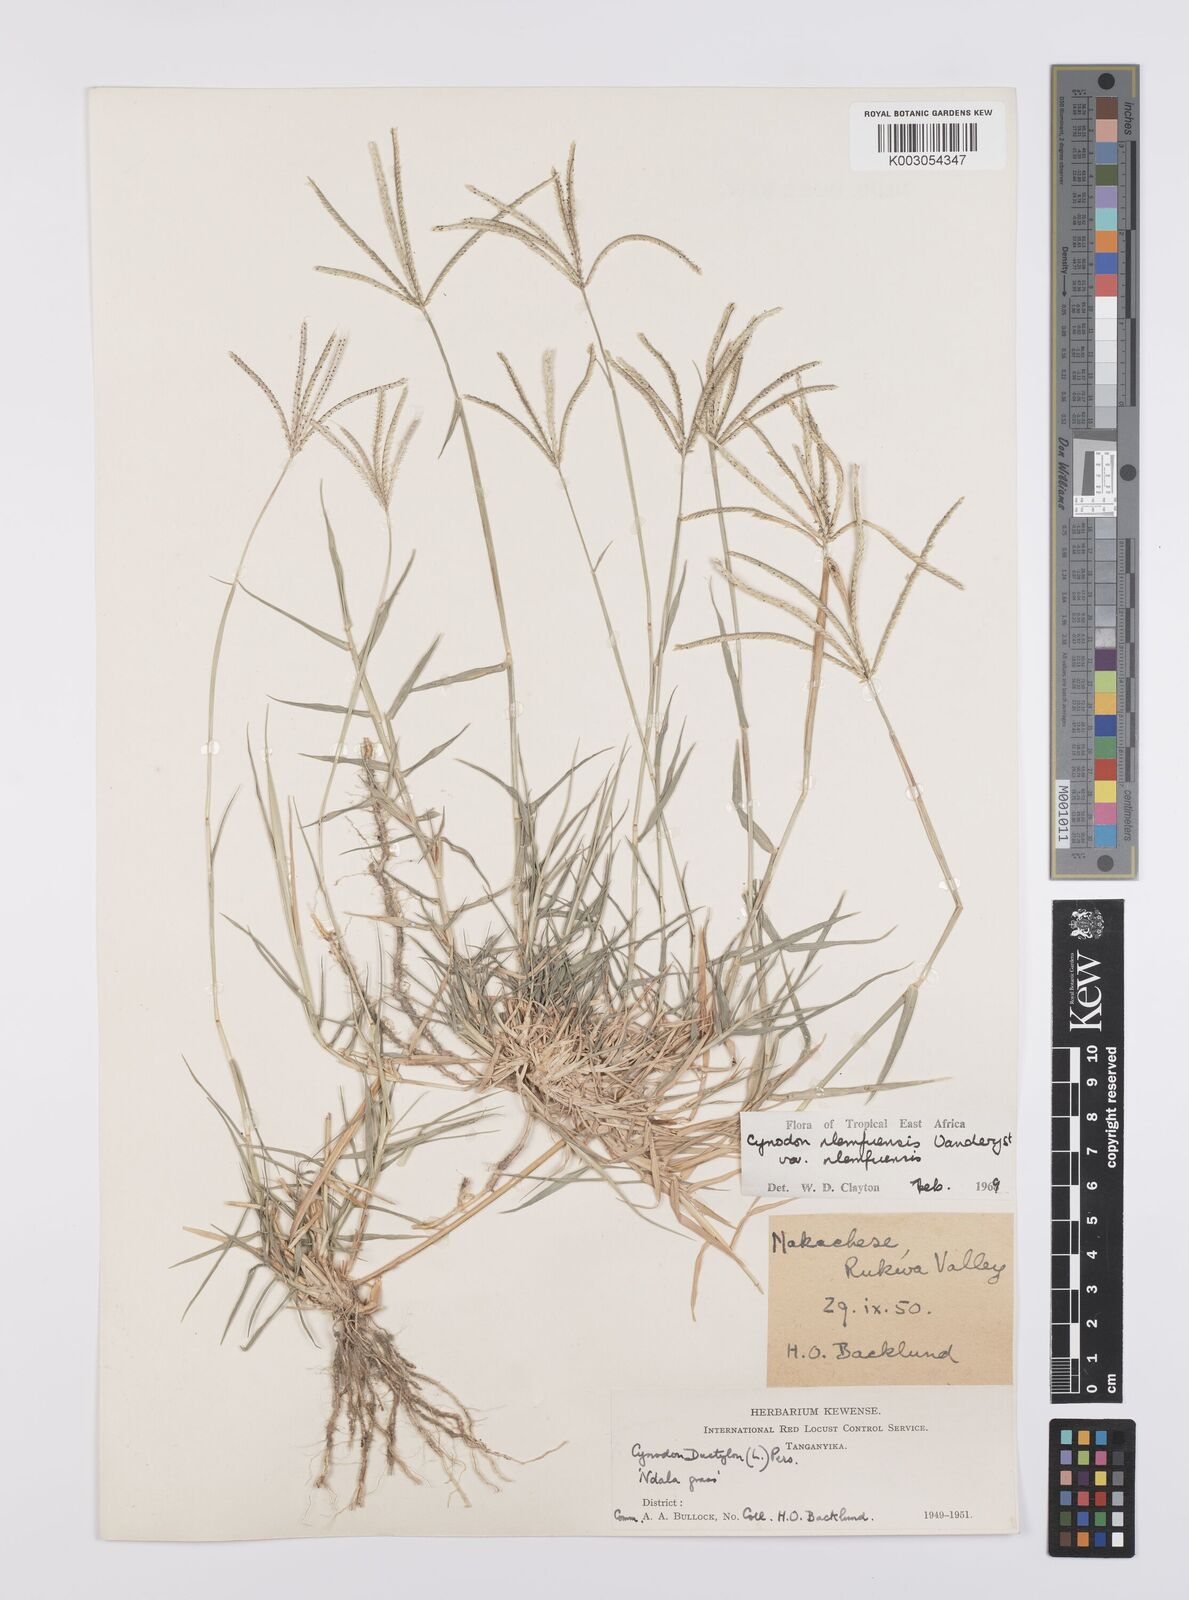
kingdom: Plantae
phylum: Tracheophyta
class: Liliopsida
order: Poales
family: Poaceae
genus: Cynodon
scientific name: Cynodon nlemfuensis
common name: African bermudagrass
